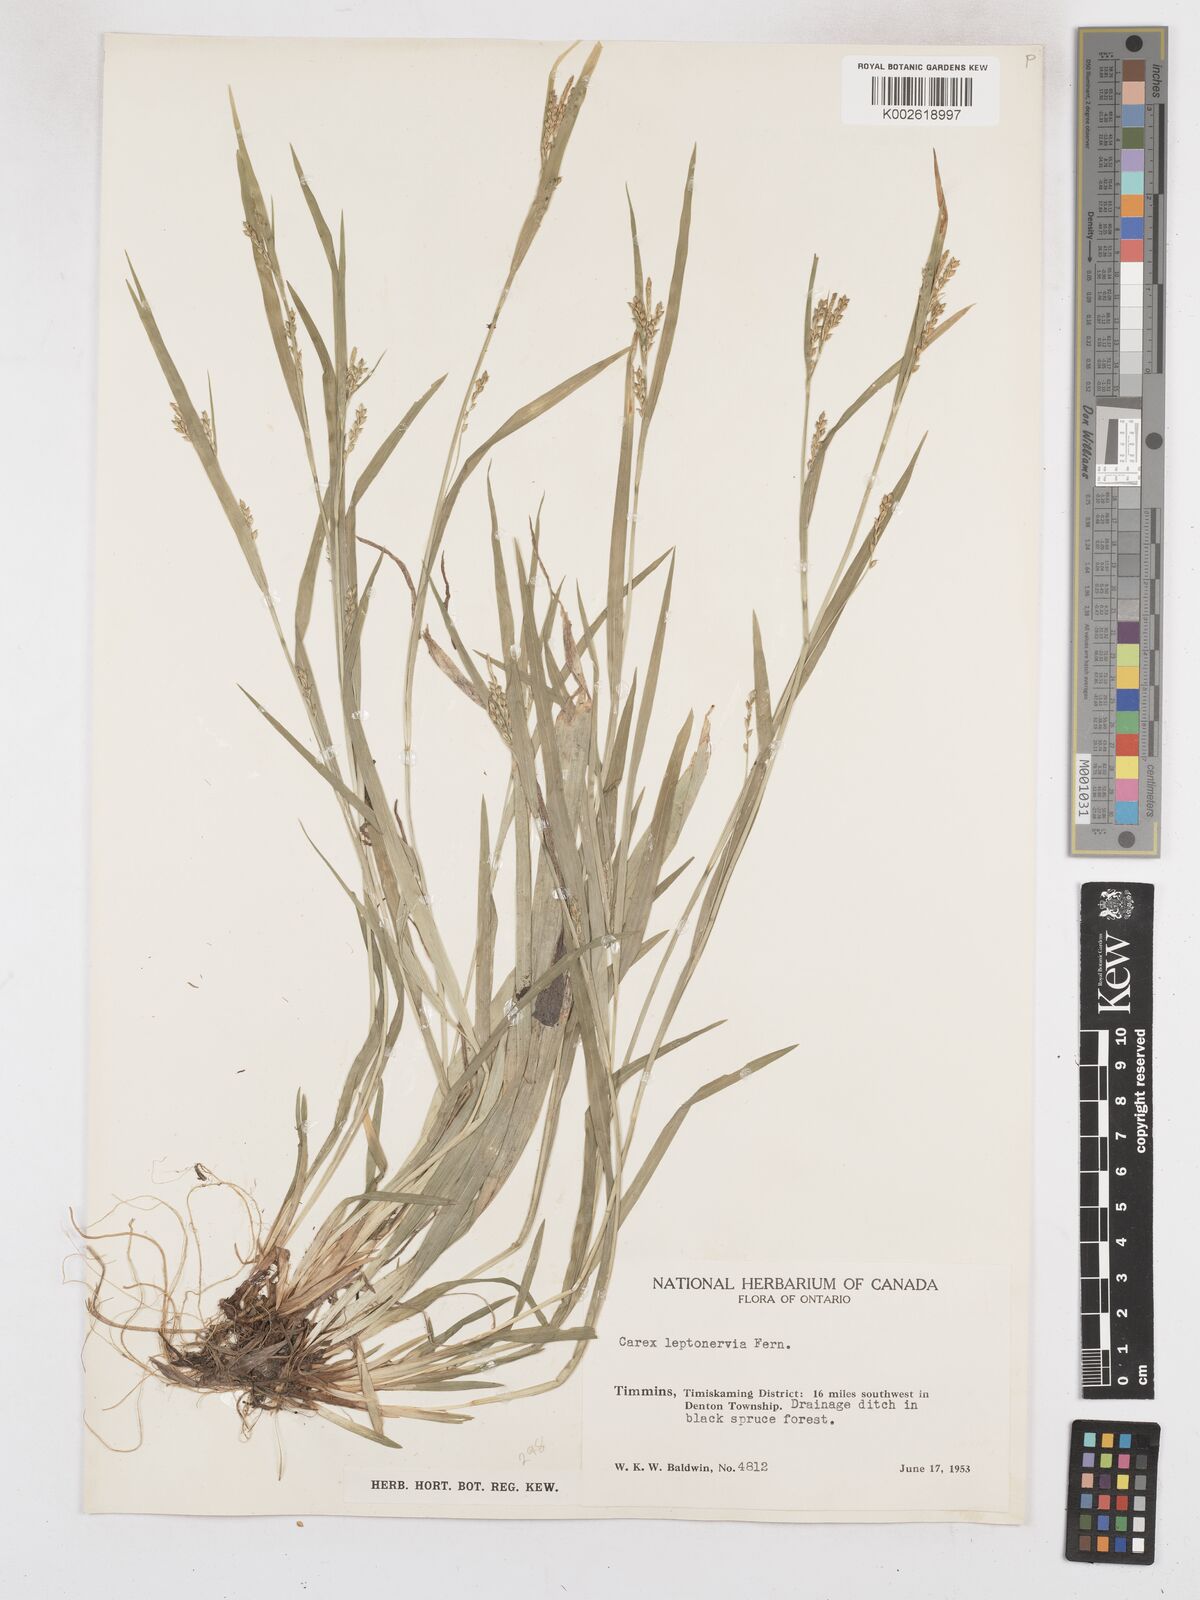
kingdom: Plantae
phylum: Tracheophyta
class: Liliopsida
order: Poales
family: Cyperaceae
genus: Carex
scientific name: Carex leptonervia
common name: Few-nerved wood sedge
